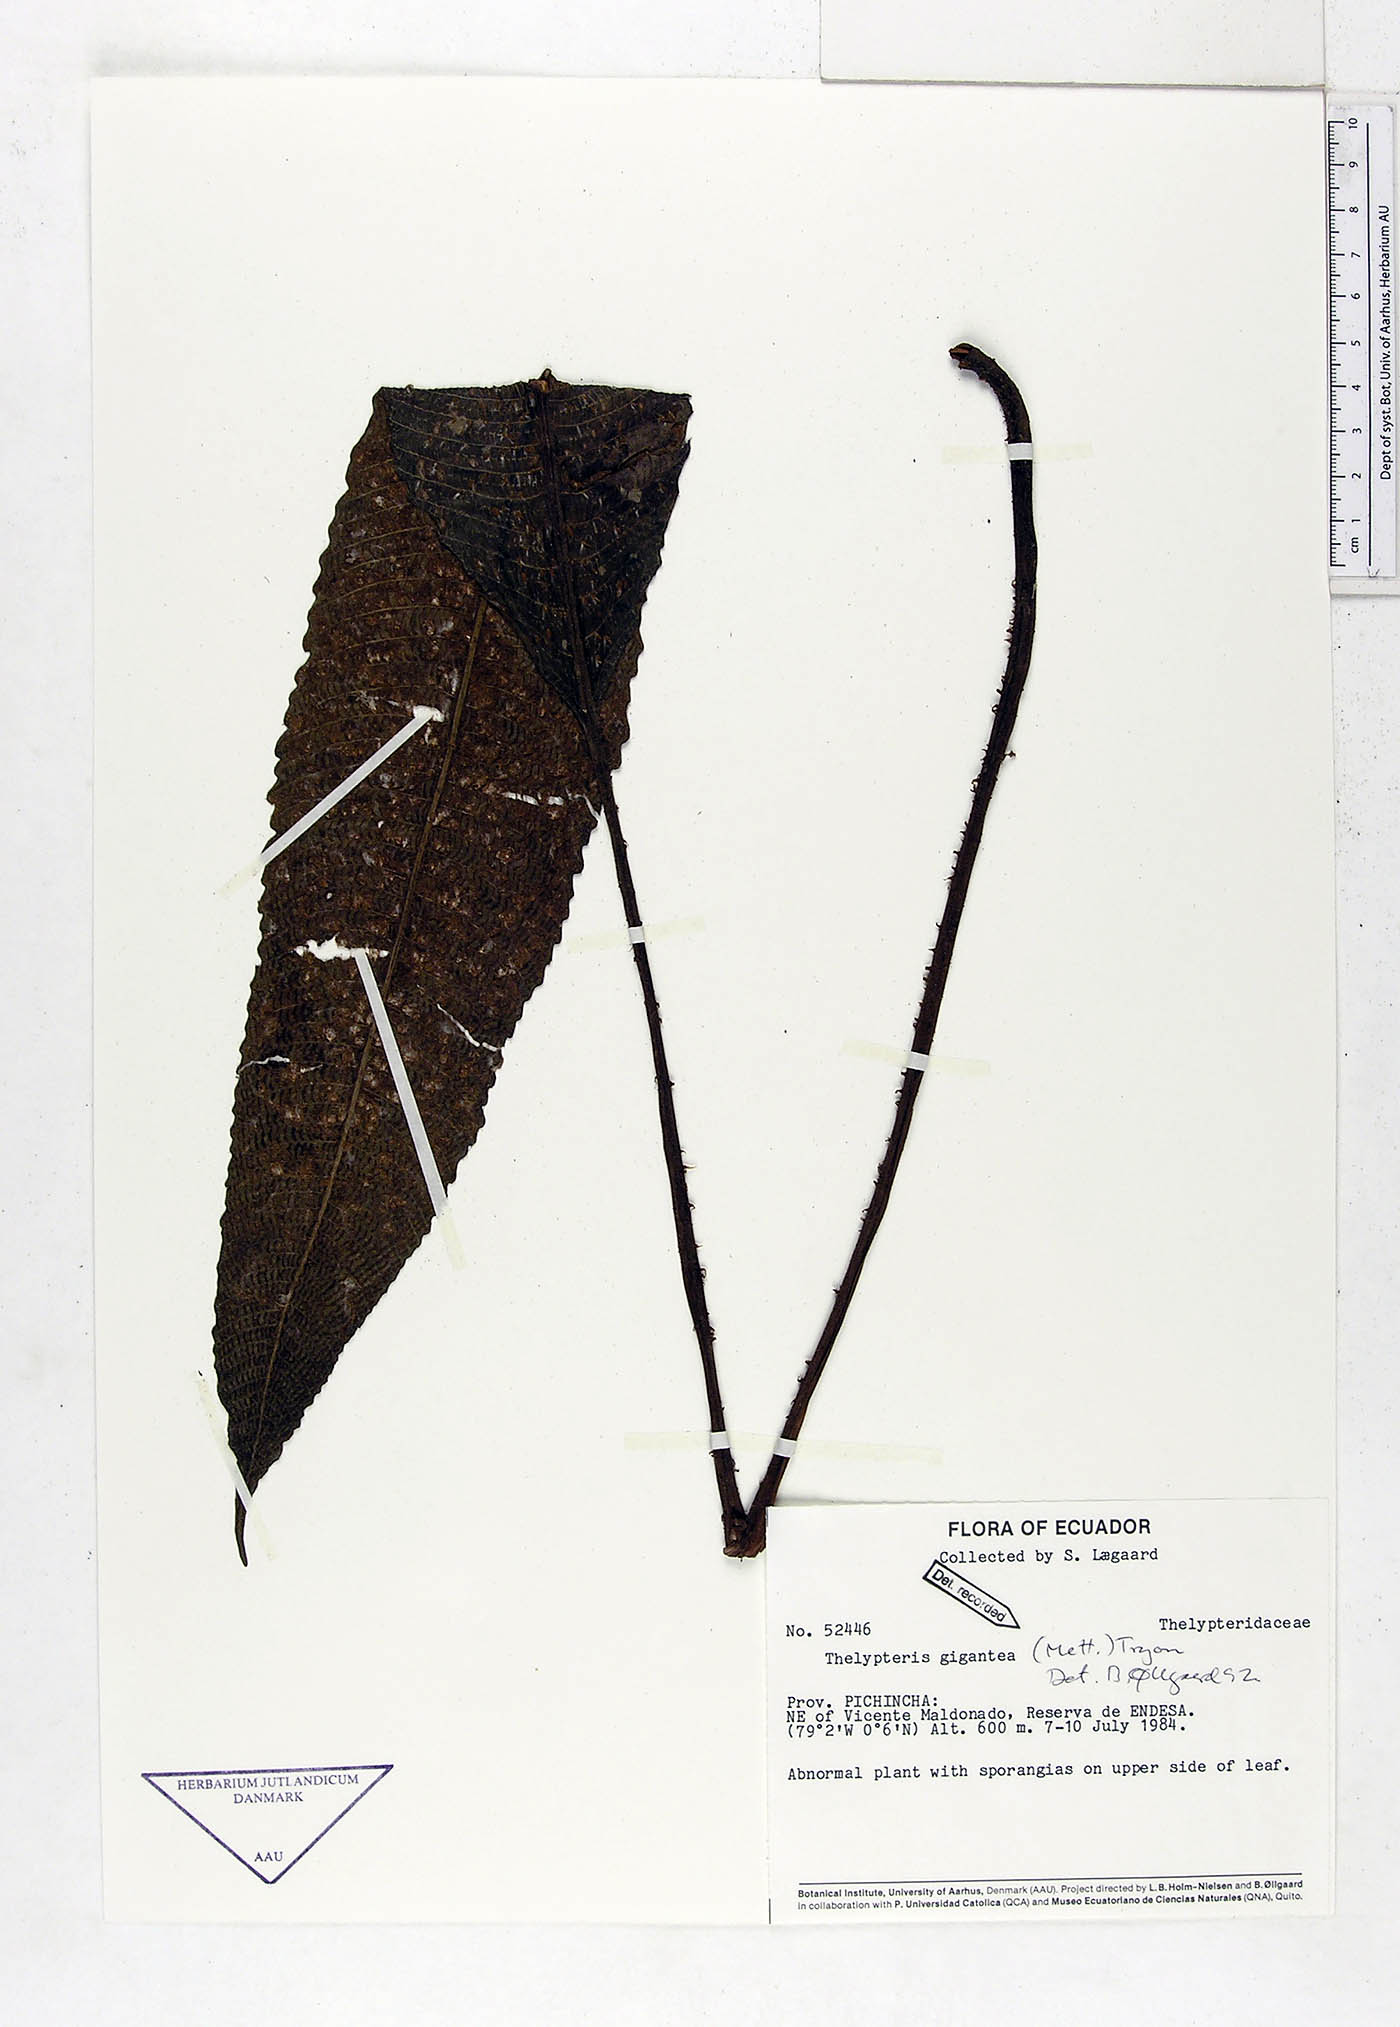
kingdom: Plantae
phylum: Tracheophyta
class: Polypodiopsida
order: Polypodiales
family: Thelypteridaceae
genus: Meniscium
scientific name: Meniscium giganteum
